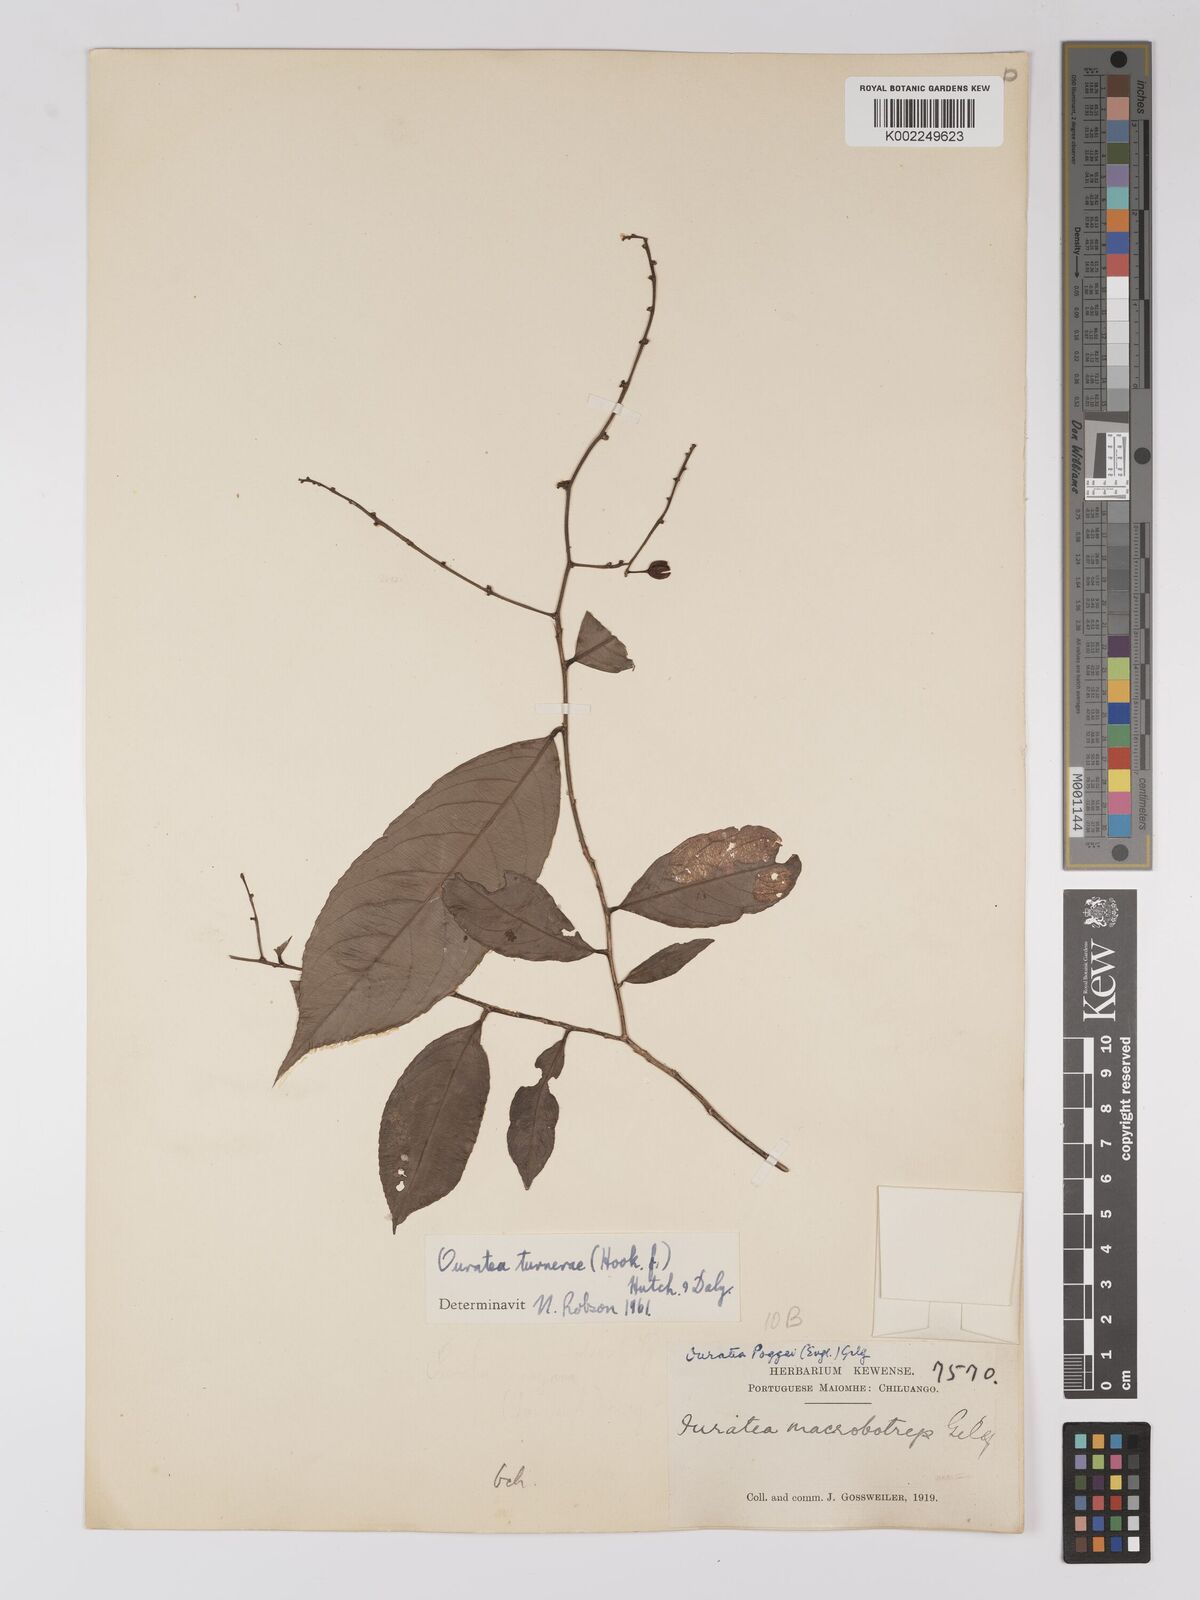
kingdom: Plantae
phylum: Tracheophyta
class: Magnoliopsida
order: Malpighiales
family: Ochnaceae
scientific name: Ochnaceae
